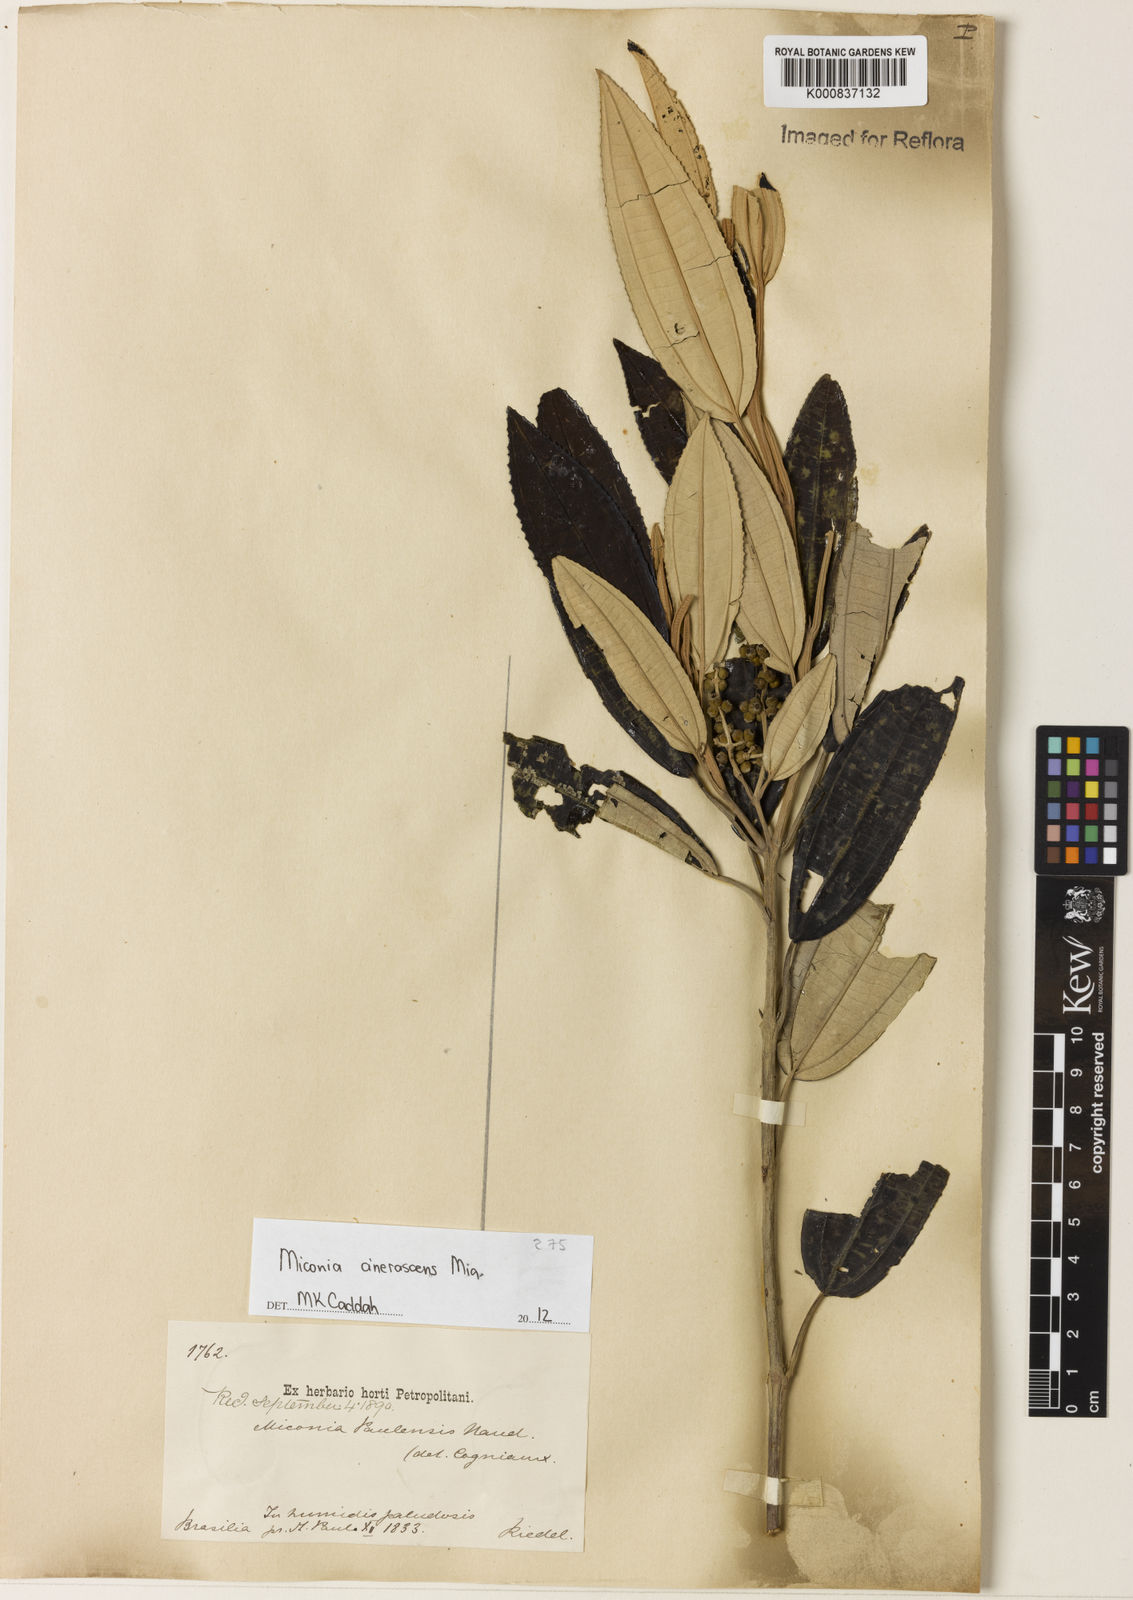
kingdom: Plantae
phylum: Tracheophyta
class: Magnoliopsida
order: Myrtales
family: Melastomataceae
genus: Miconia
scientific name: Miconia cinerascens
